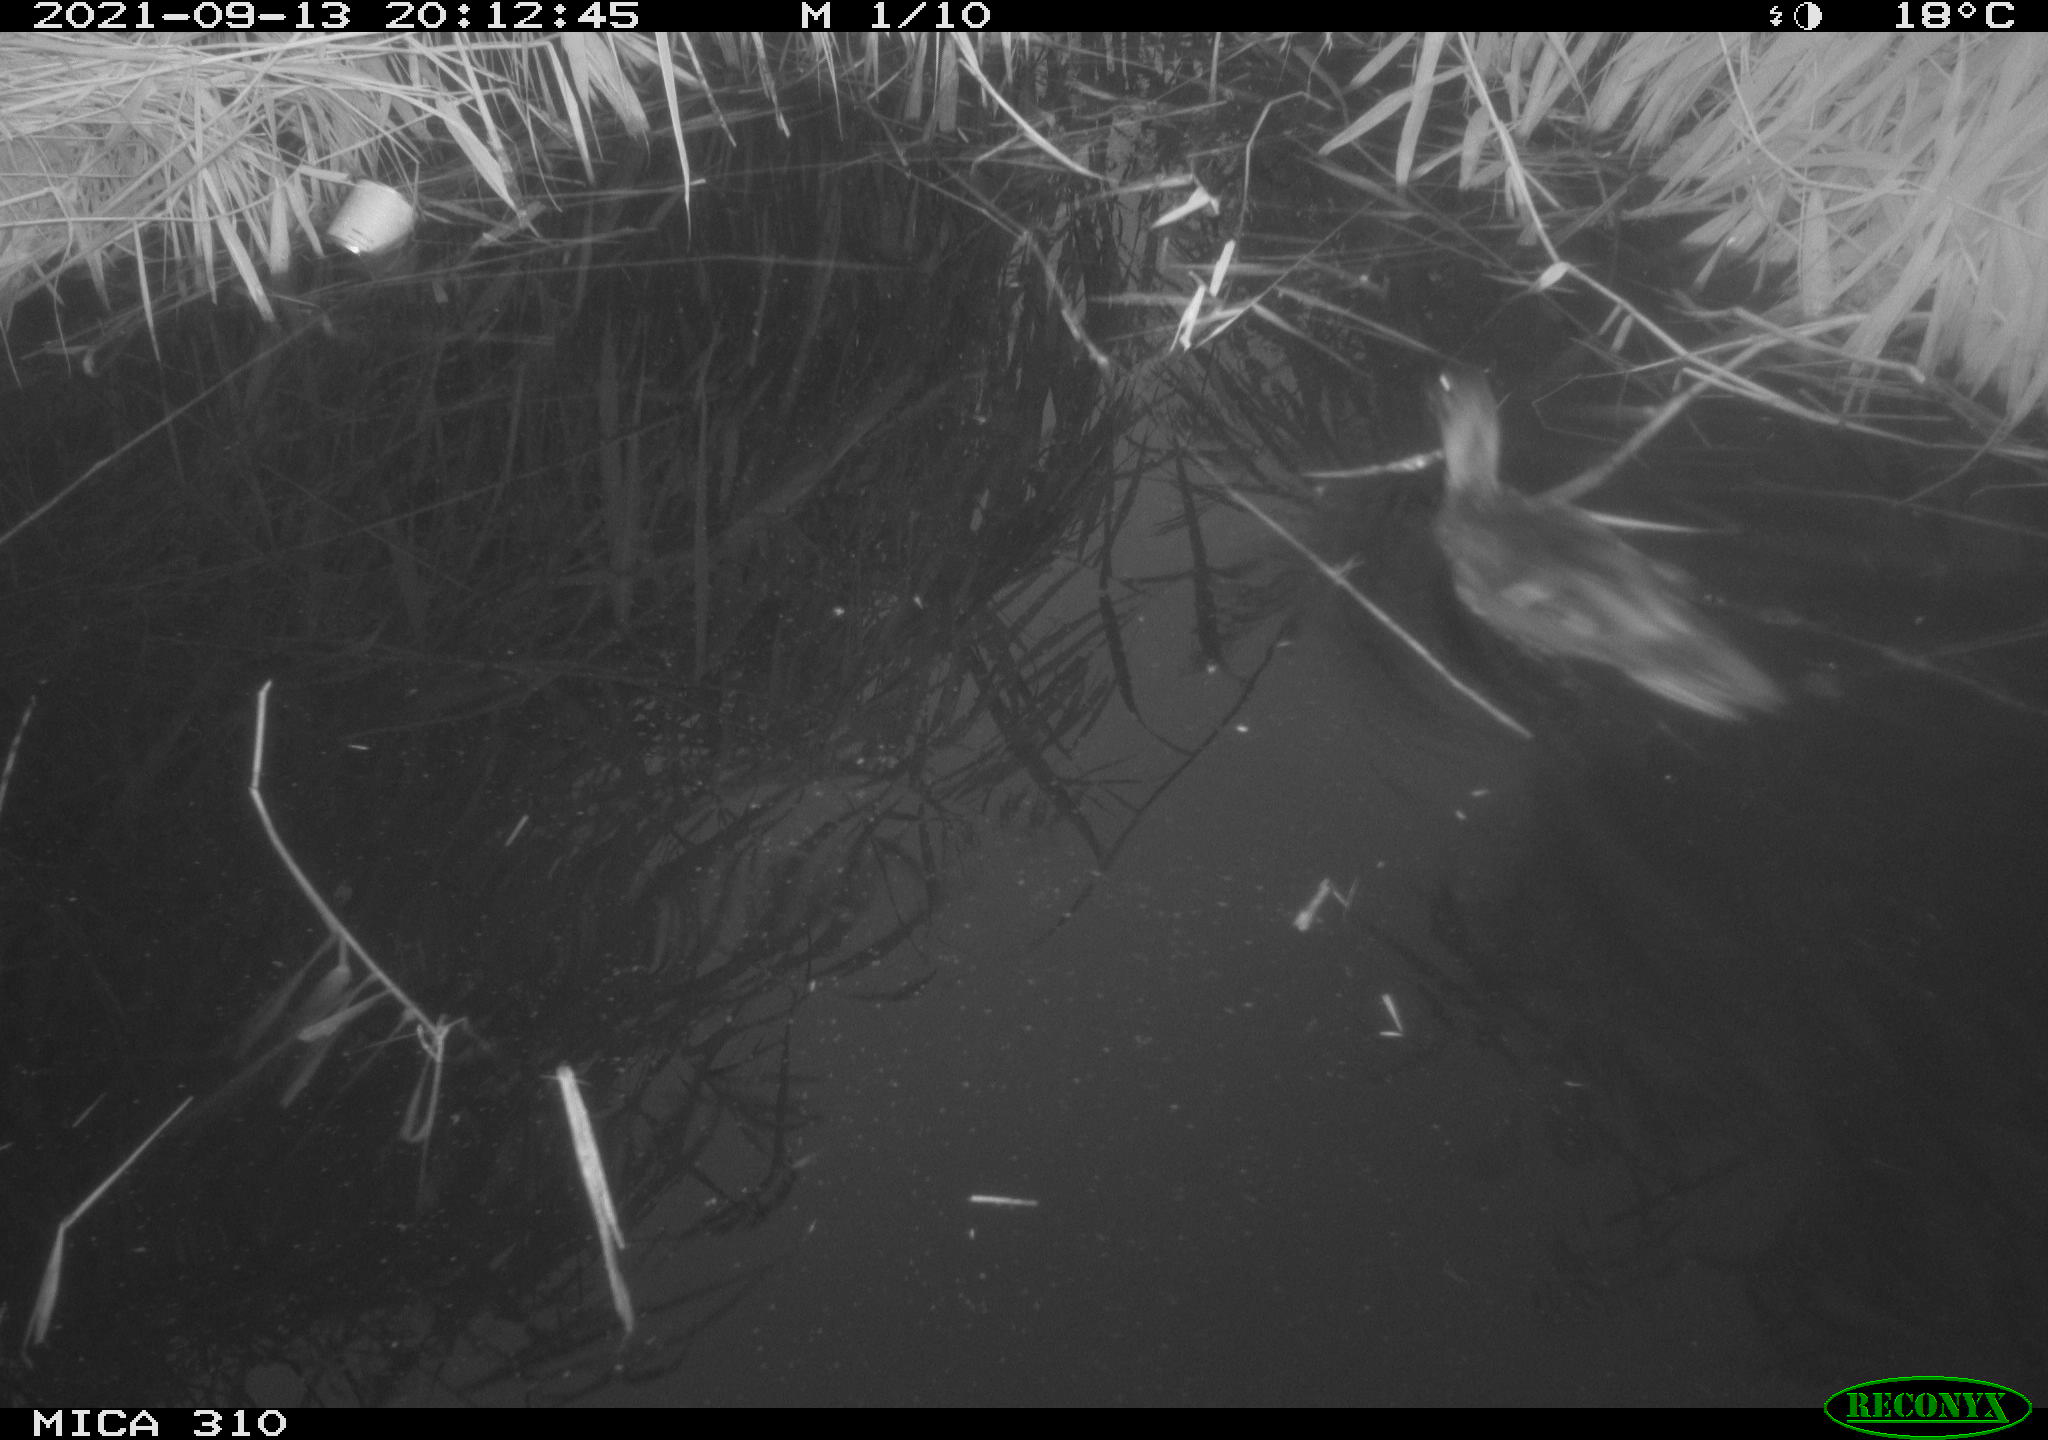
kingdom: Animalia
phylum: Chordata
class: Aves
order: Anseriformes
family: Anatidae
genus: Mareca
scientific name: Mareca strepera
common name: Gadwall
